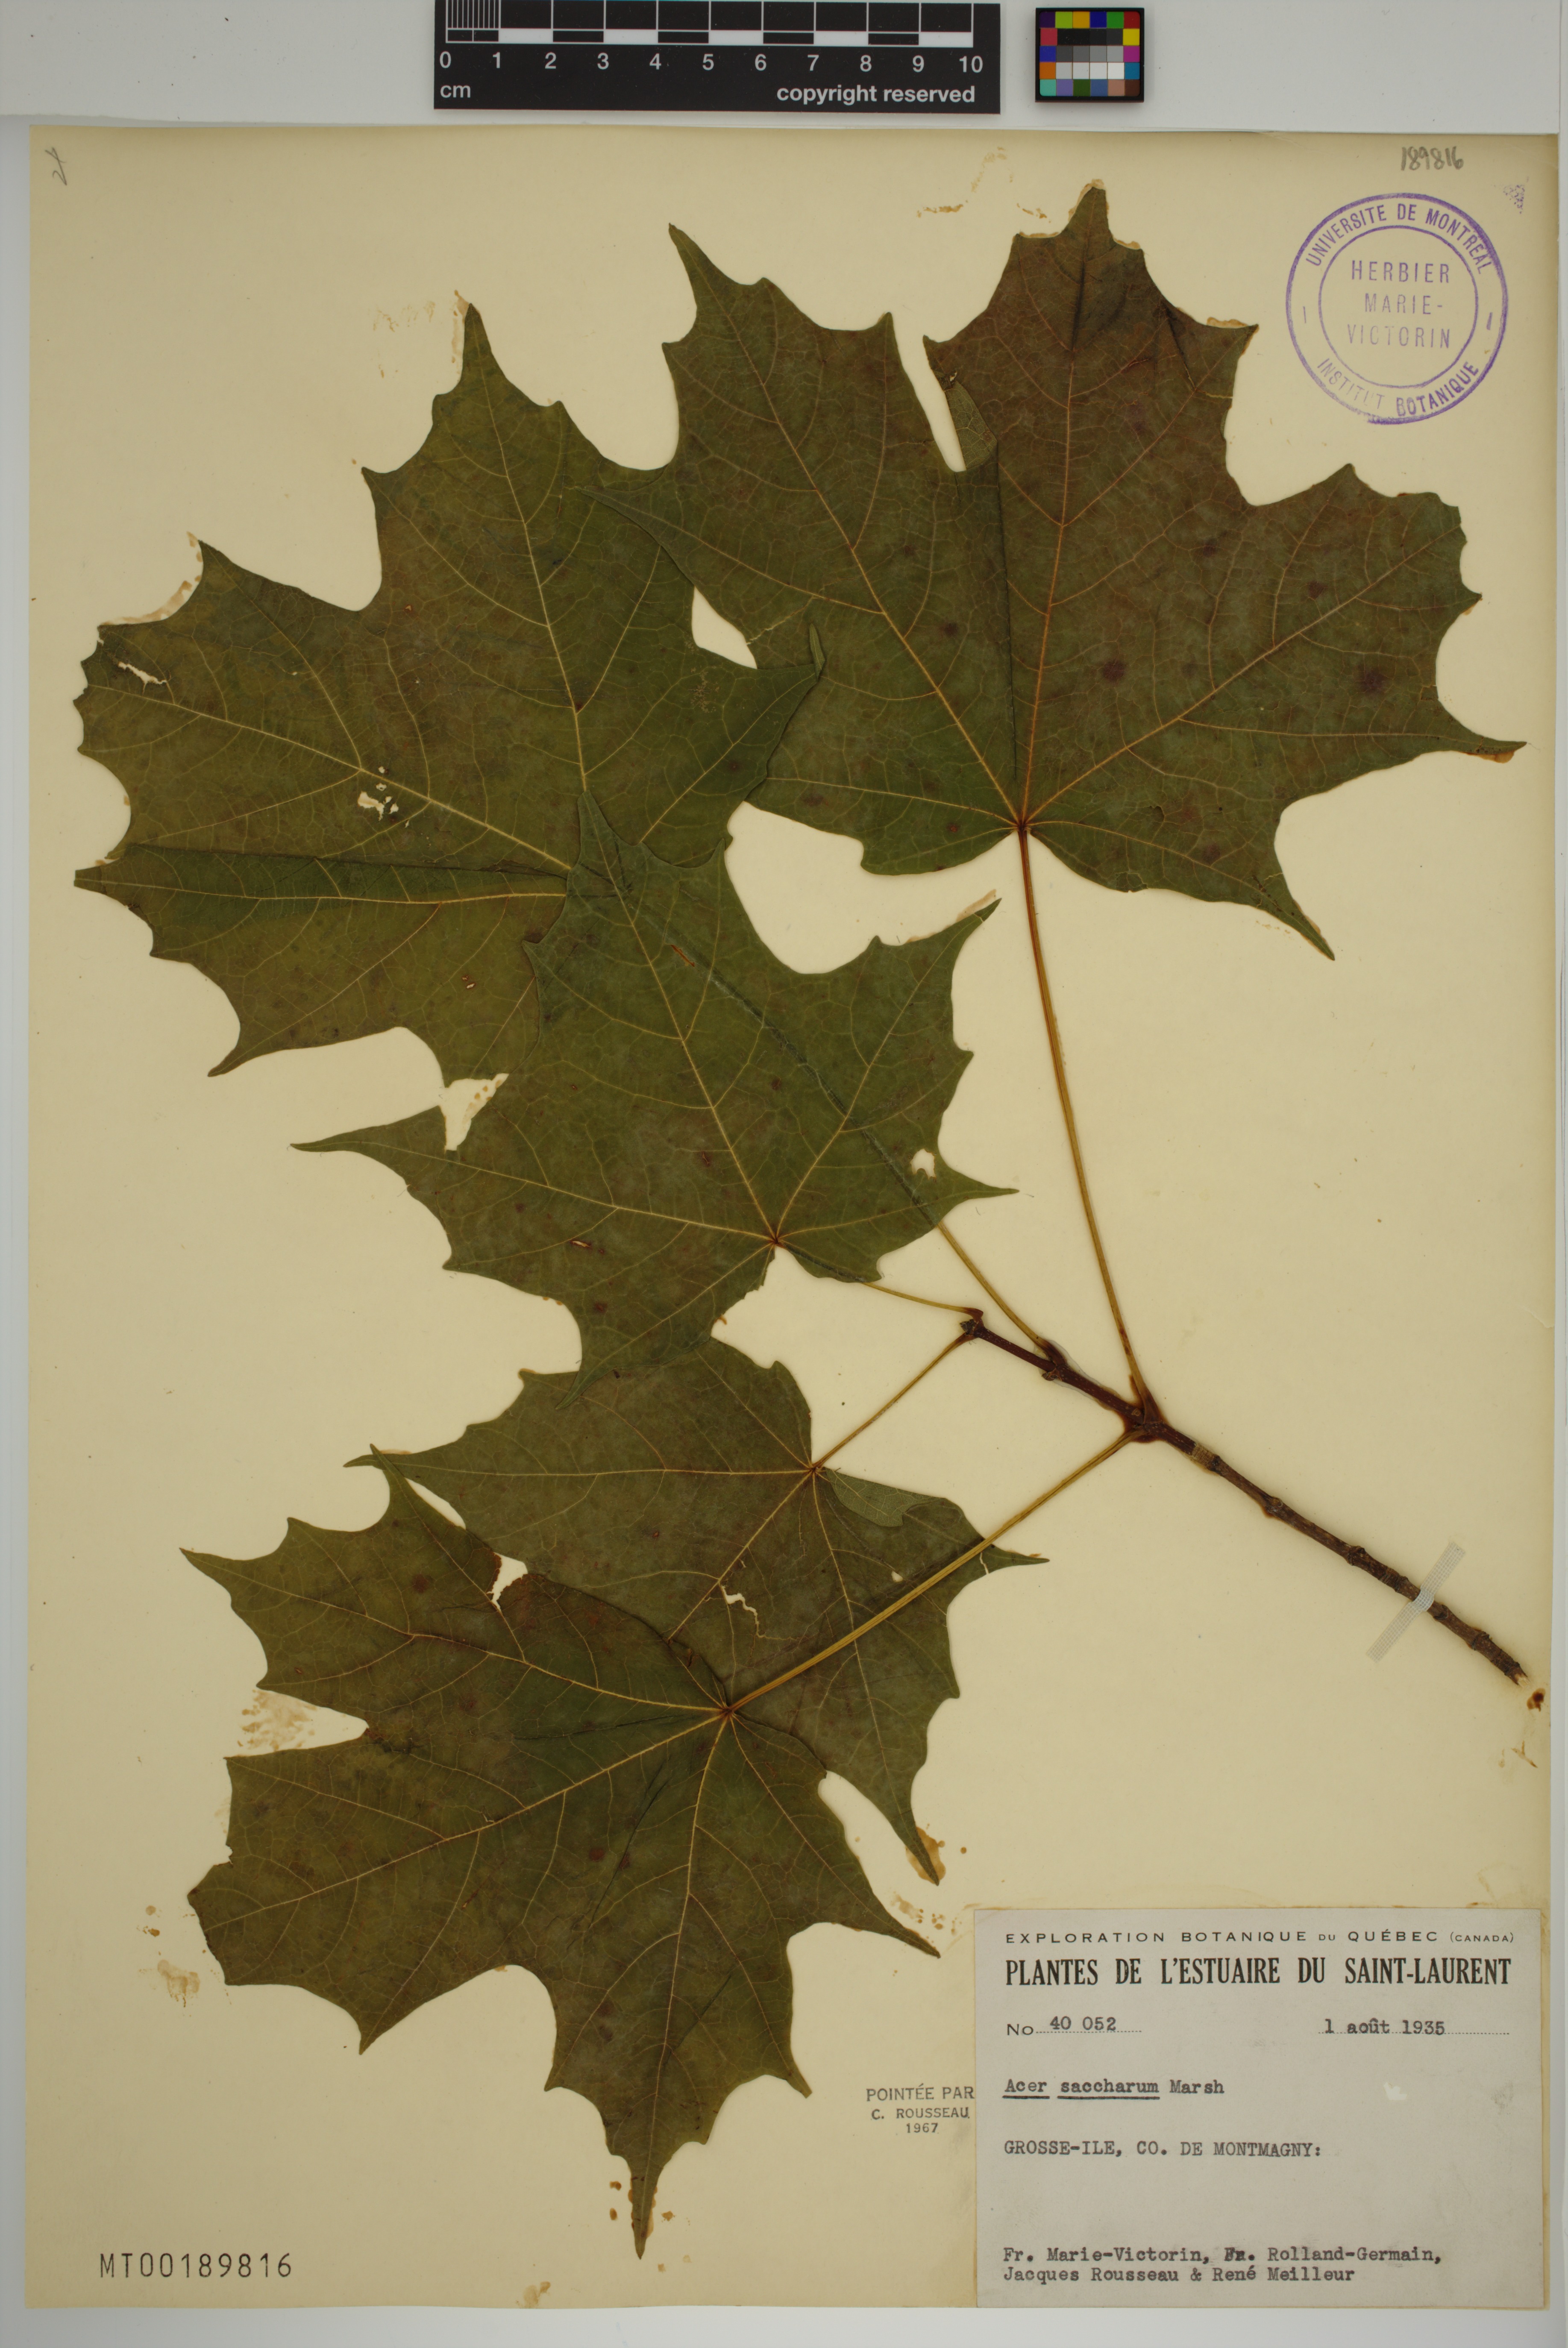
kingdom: Plantae
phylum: Tracheophyta
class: Magnoliopsida
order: Sapindales
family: Sapindaceae
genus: Acer
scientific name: Acer saccharum
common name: Sugar maple
